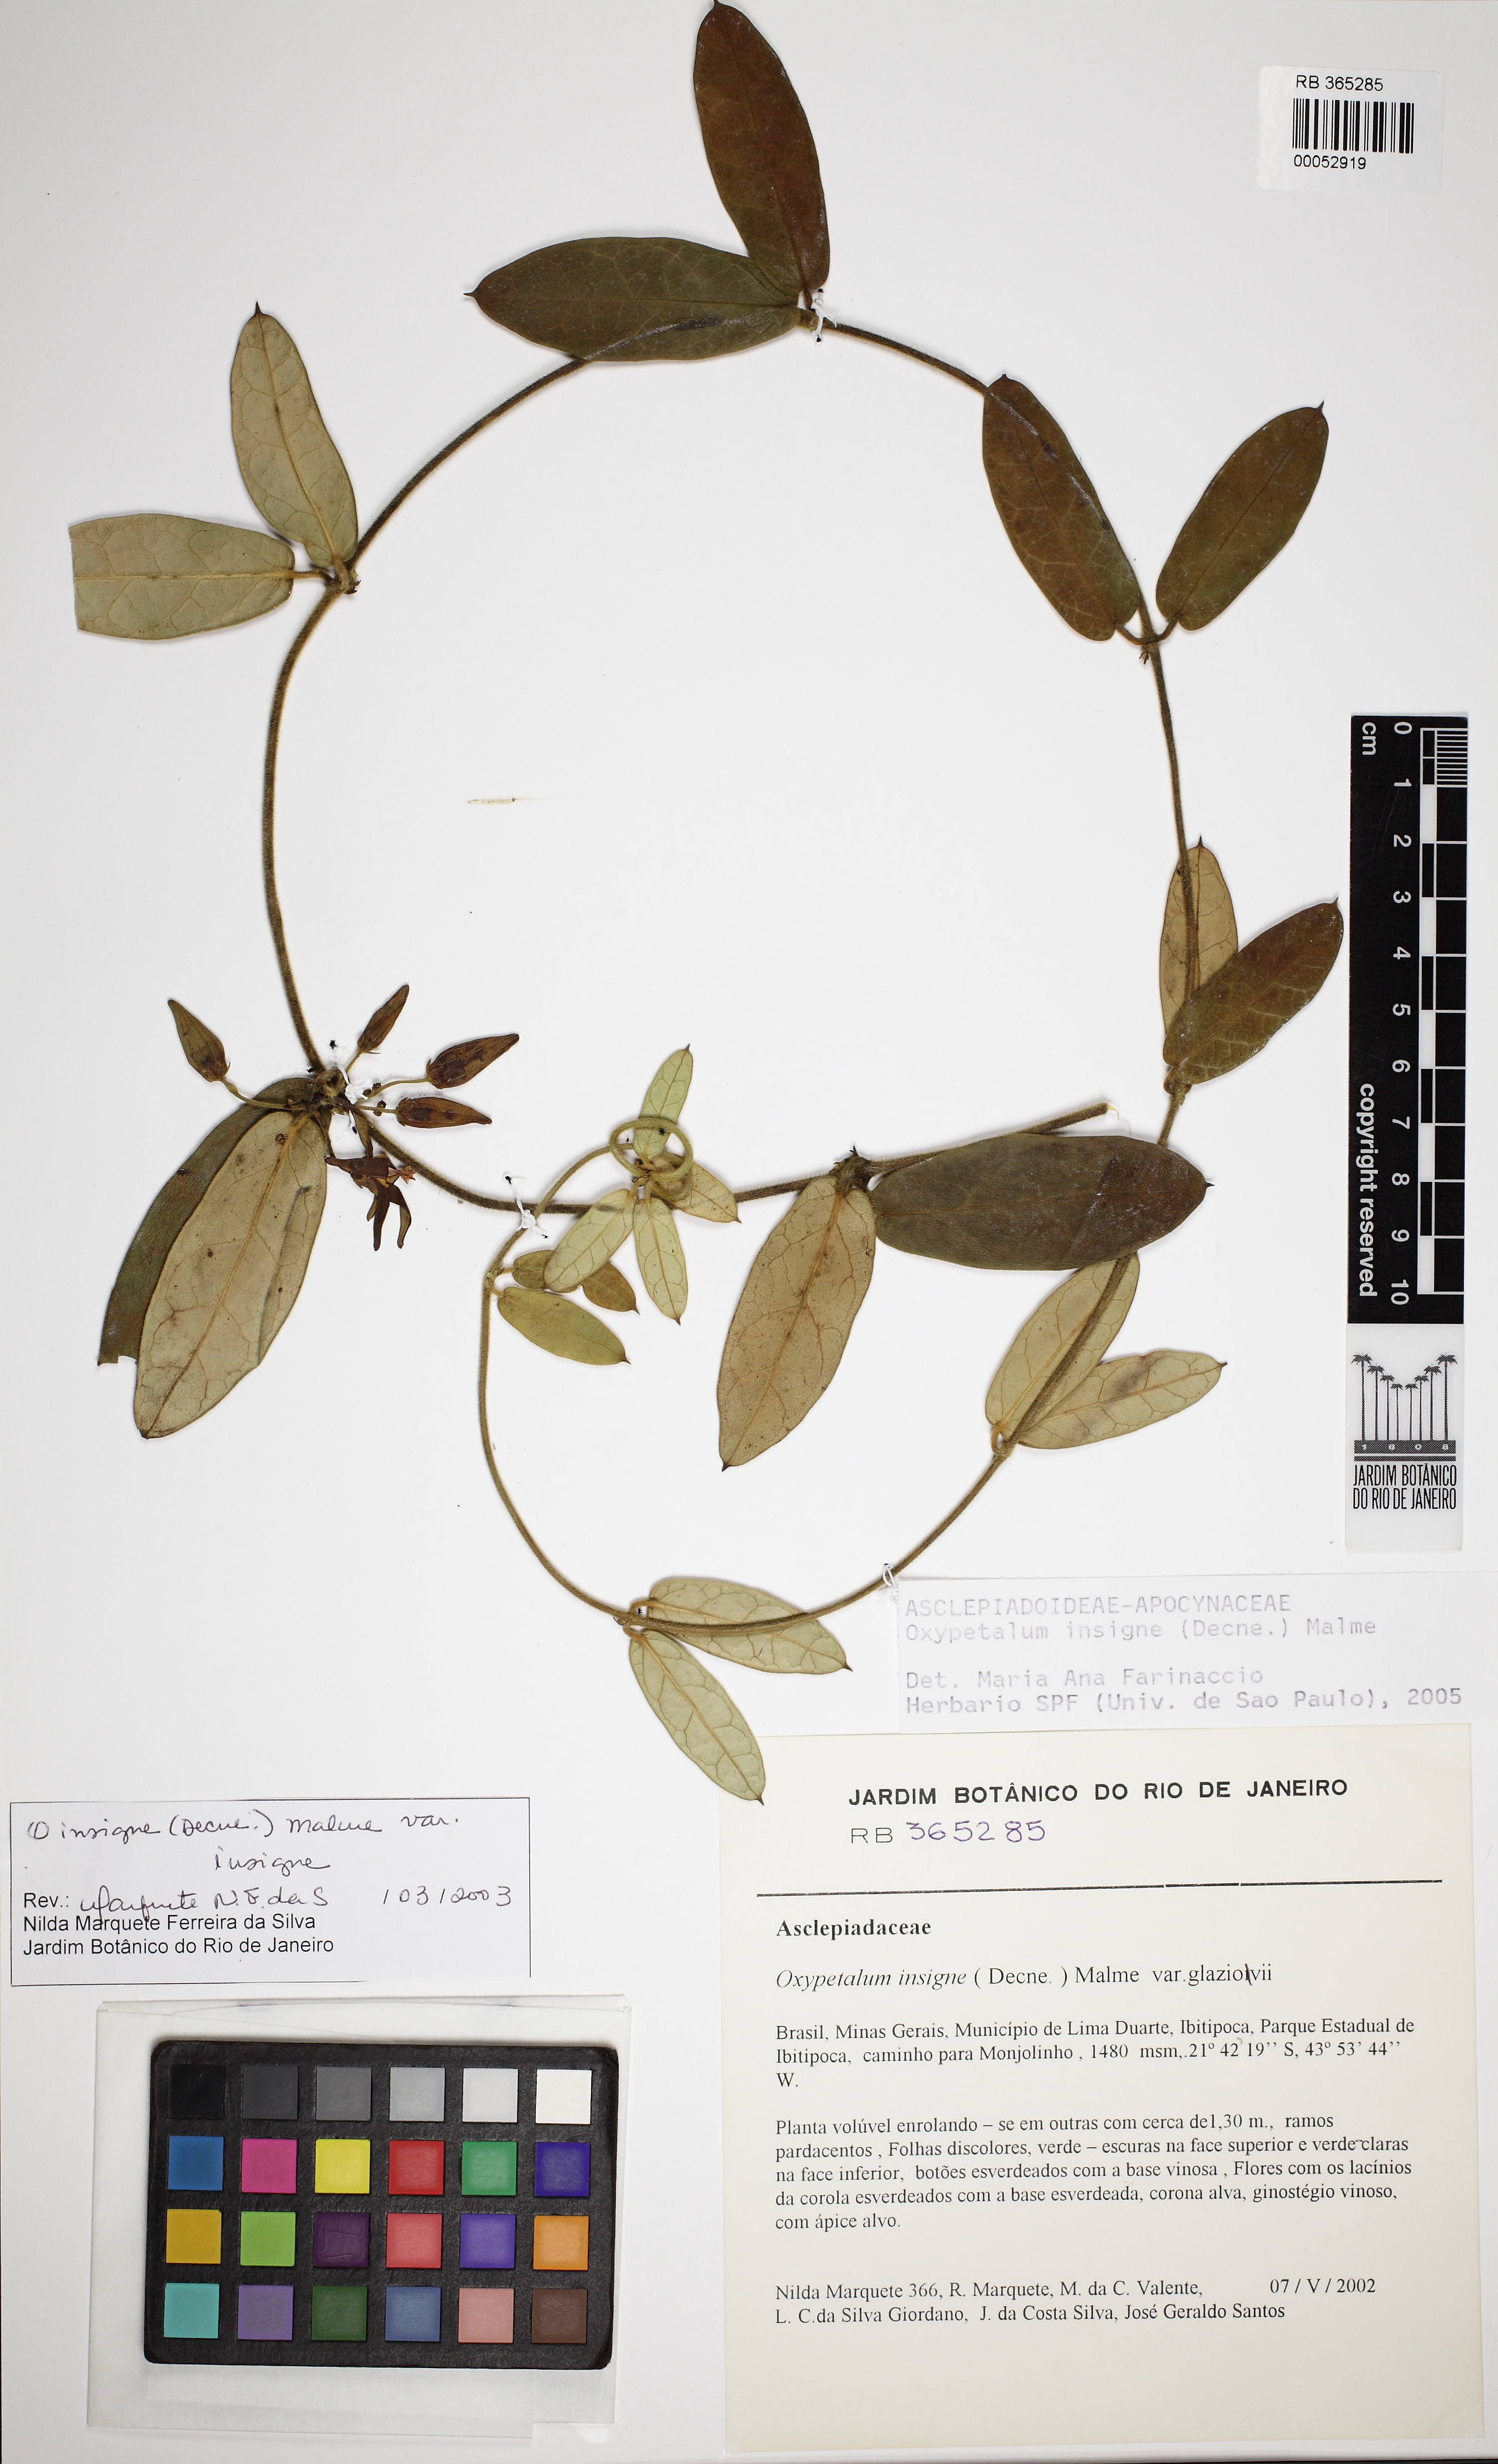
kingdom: Plantae
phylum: Tracheophyta
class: Magnoliopsida
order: Gentianales
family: Apocynaceae
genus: Oxypetalum
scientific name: Oxypetalum insigne
